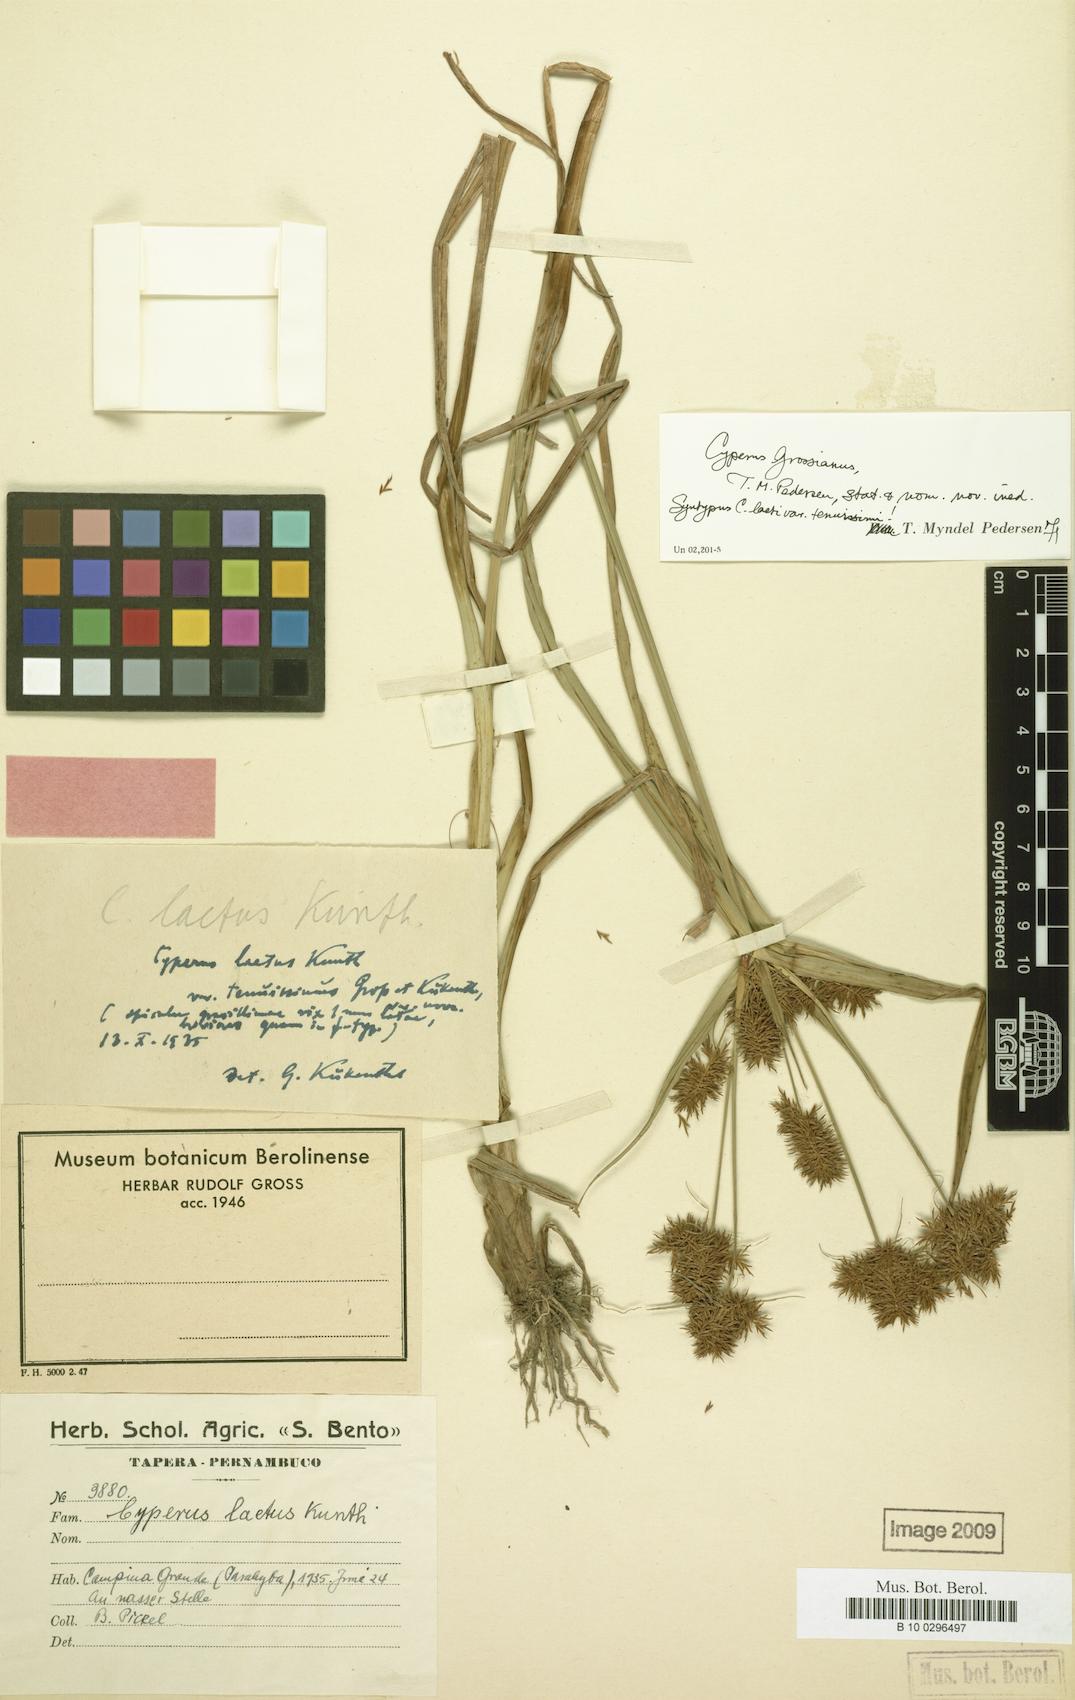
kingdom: Plantae
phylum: Tracheophyta
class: Liliopsida
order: Poales
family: Cyperaceae
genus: Cyperus
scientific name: Cyperus grossianus
